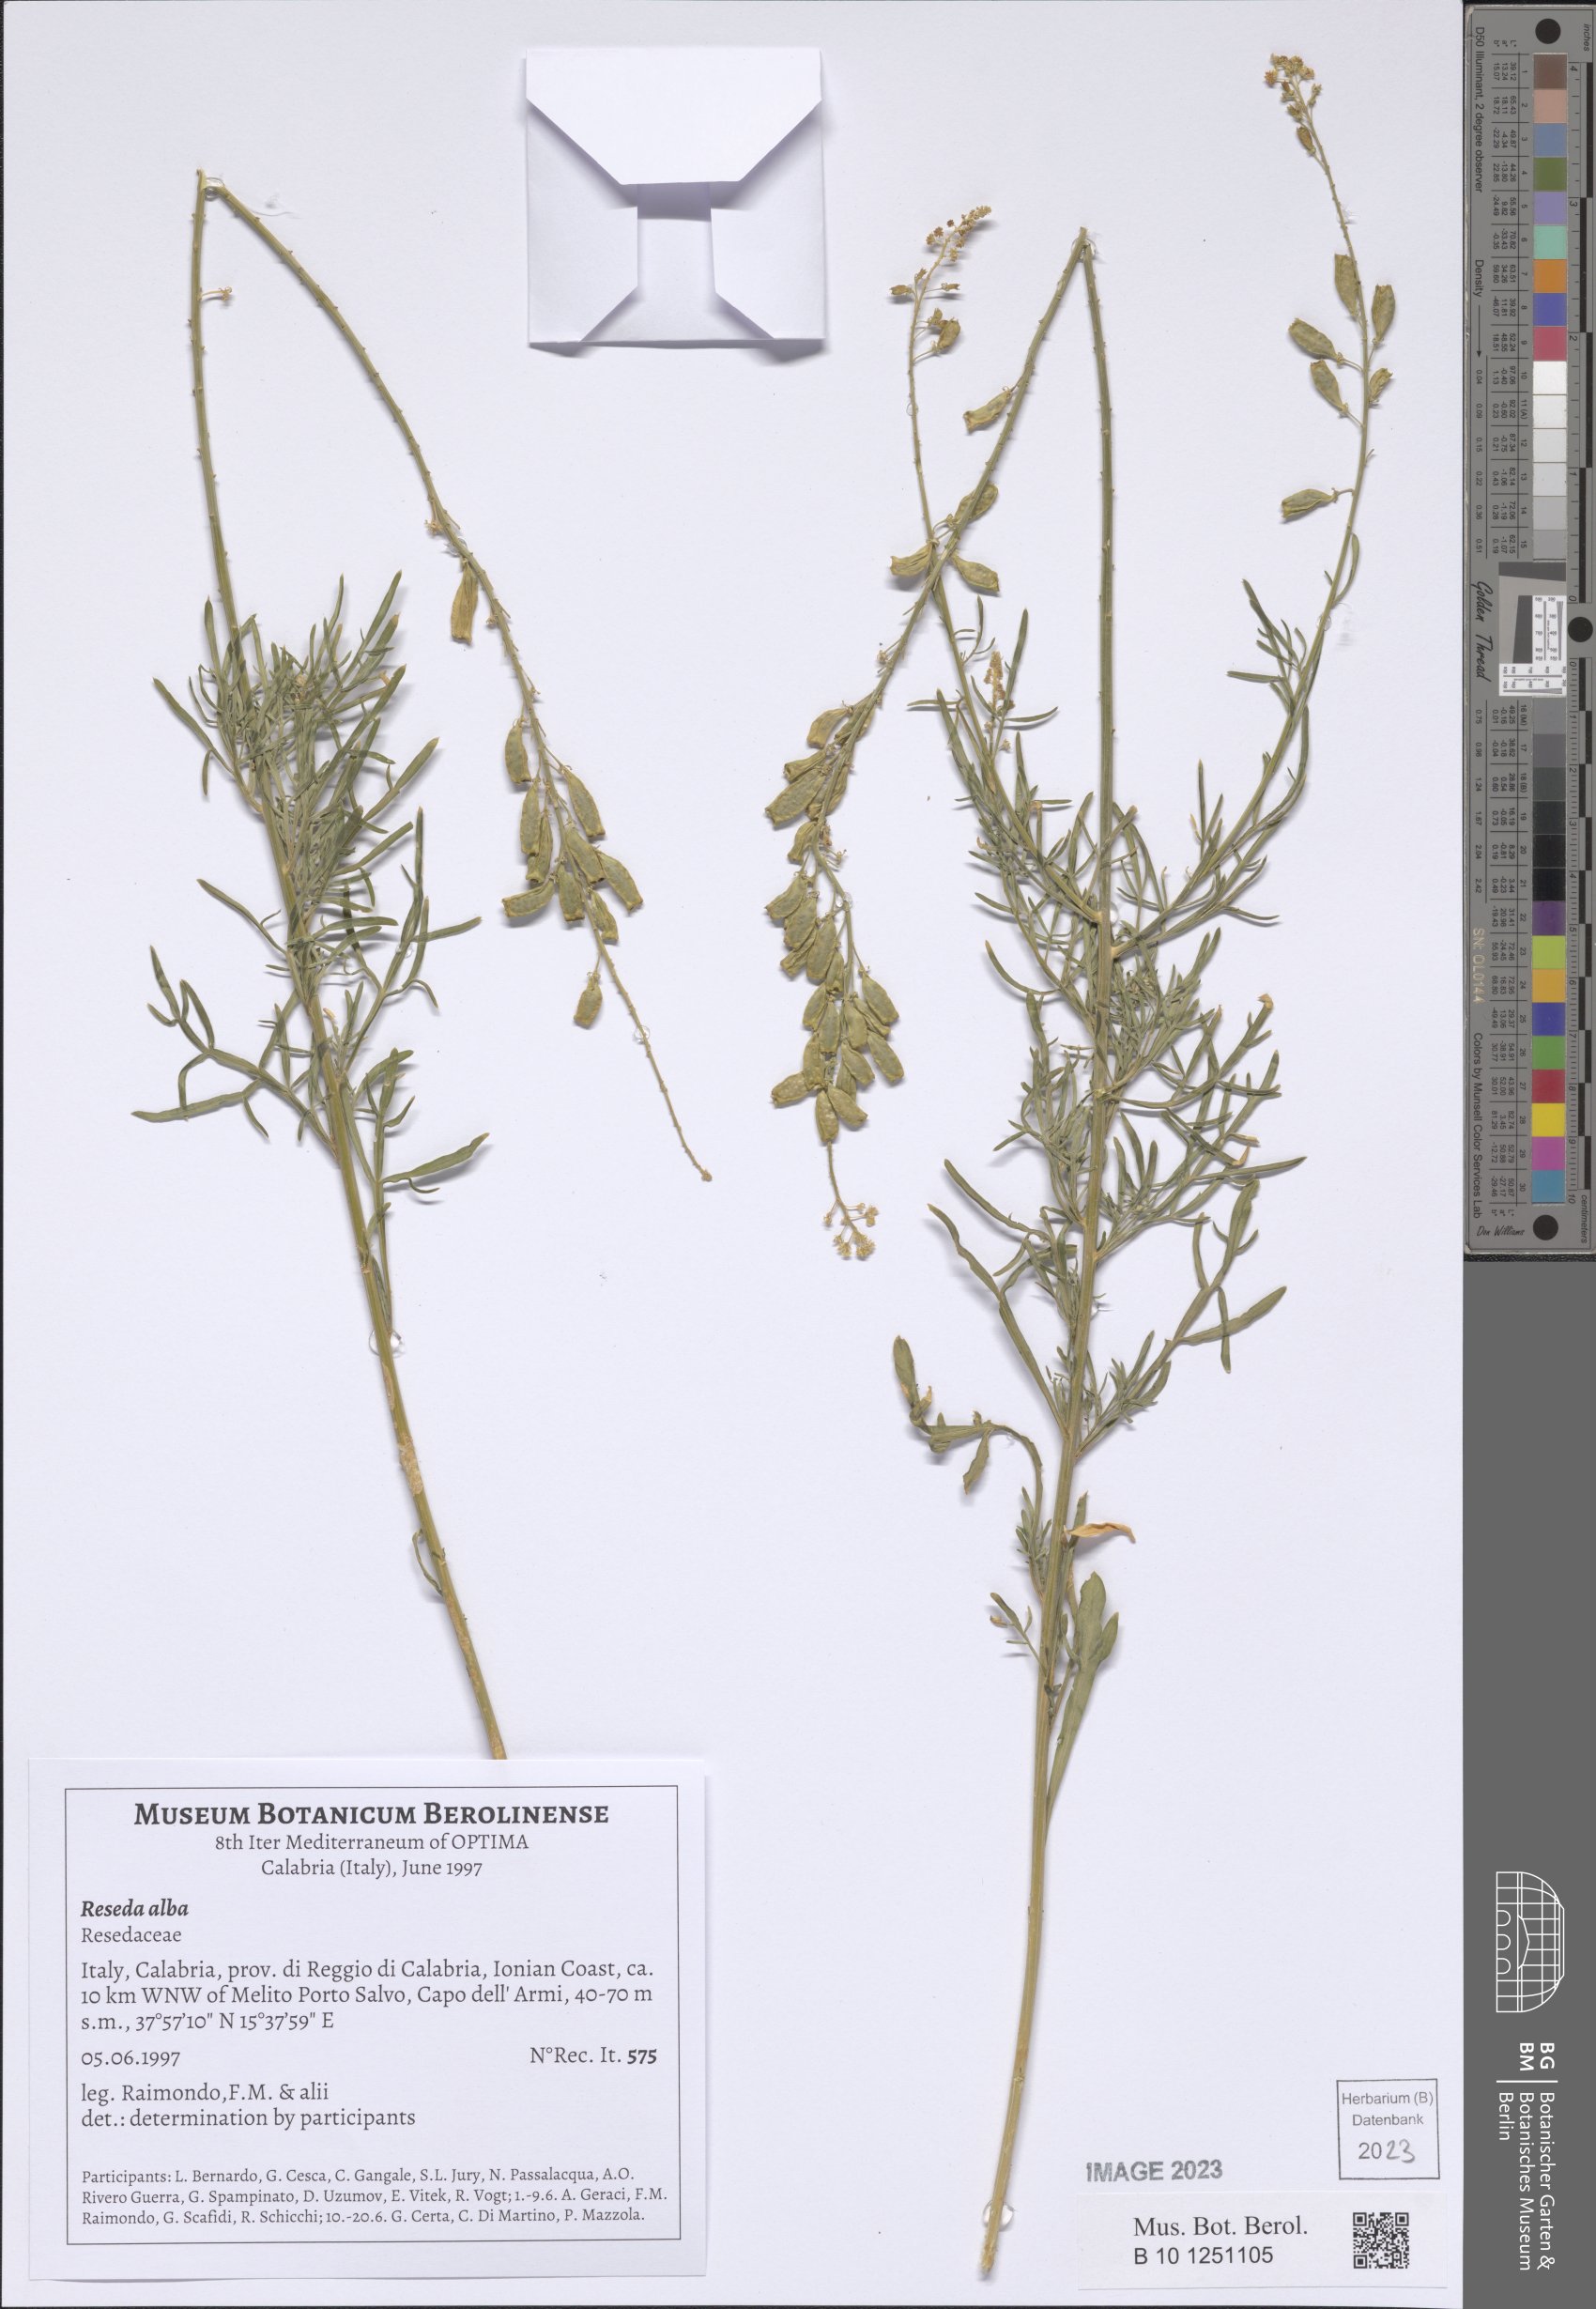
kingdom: Plantae
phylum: Tracheophyta
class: Magnoliopsida
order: Brassicales
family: Resedaceae
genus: Reseda
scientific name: Reseda alba
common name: White mignonette
